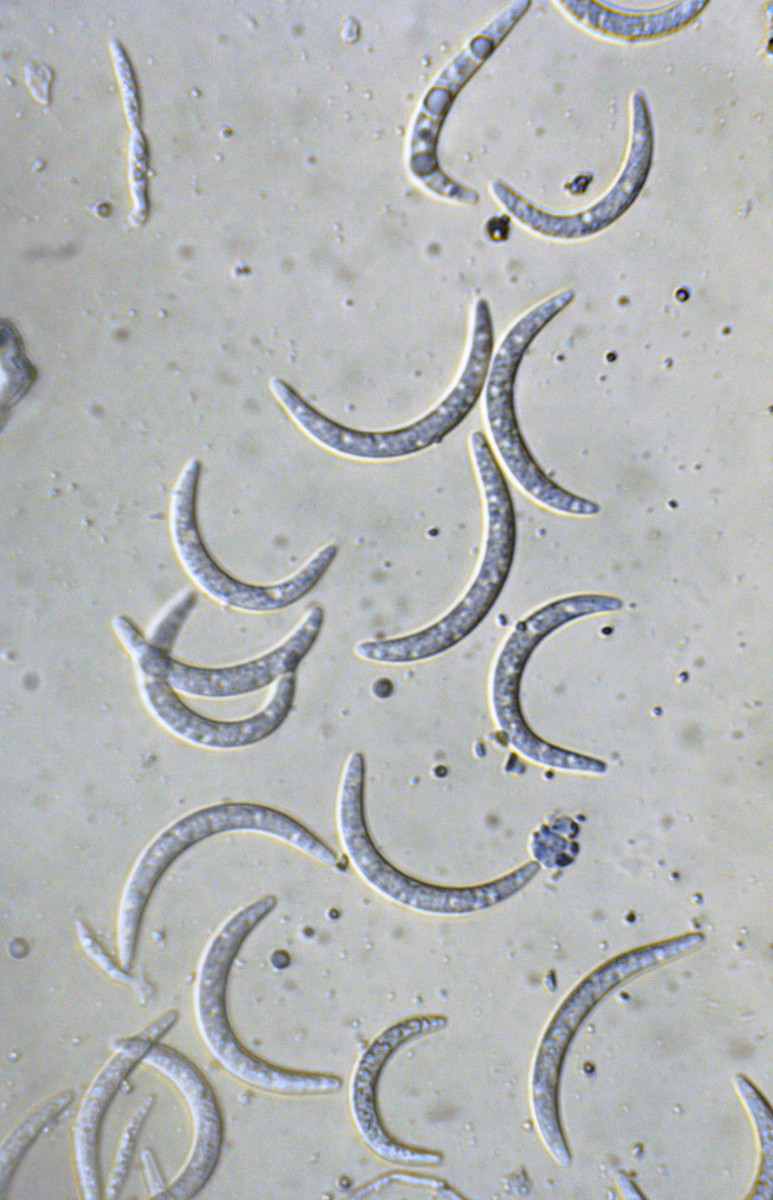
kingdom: Fungi
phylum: Ascomycota
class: Sordariomycetes
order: Diaporthales
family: Gnomoniaceae
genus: Cryptosporella
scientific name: Cryptosporella suffusa
